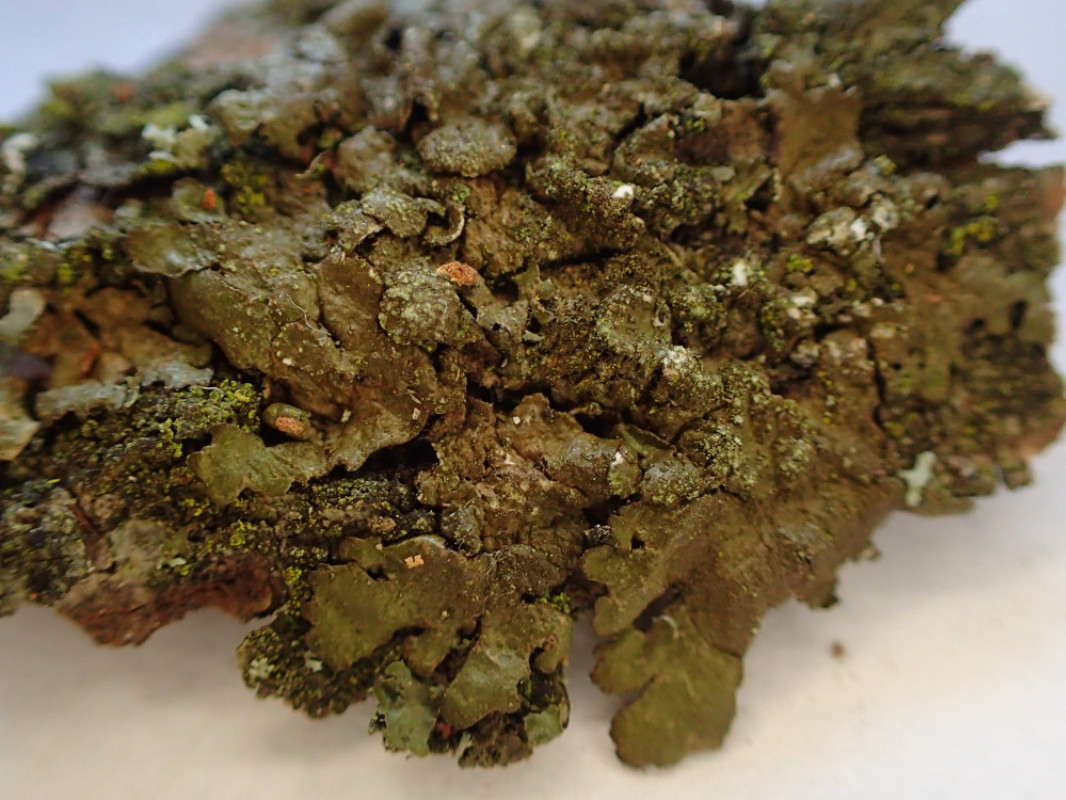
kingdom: Fungi
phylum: Ascomycota
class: Lecanoromycetes
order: Lecanorales
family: Parmeliaceae
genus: Melanelixia
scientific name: Melanelixia subaurifera
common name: guldpudret skållav
